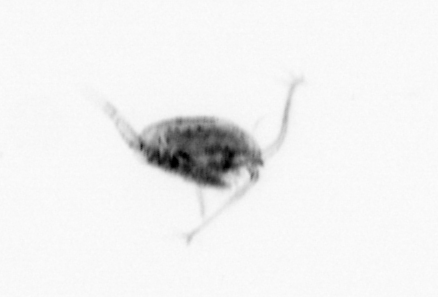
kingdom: Animalia
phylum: Arthropoda
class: Copepoda
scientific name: Copepoda
